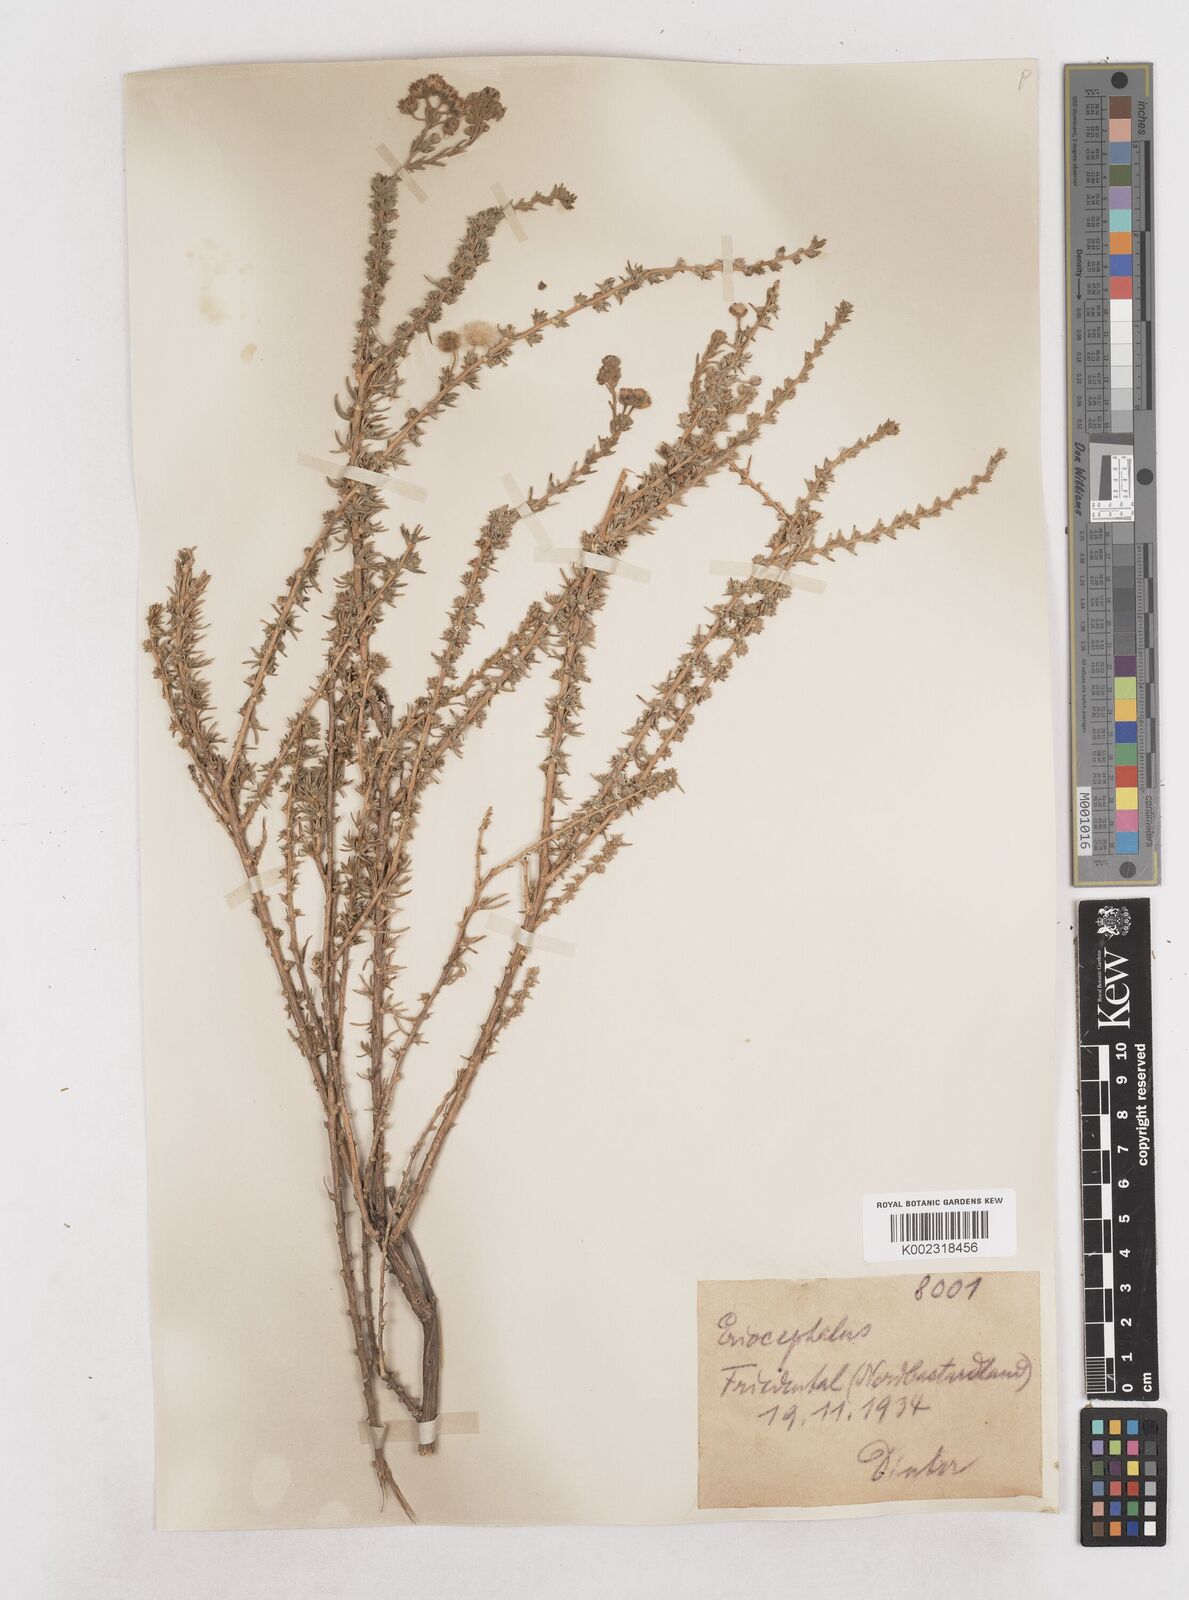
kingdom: Plantae
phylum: Tracheophyta
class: Magnoliopsida
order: Asterales
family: Asteraceae
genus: Eriocephalus
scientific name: Eriocephalus
